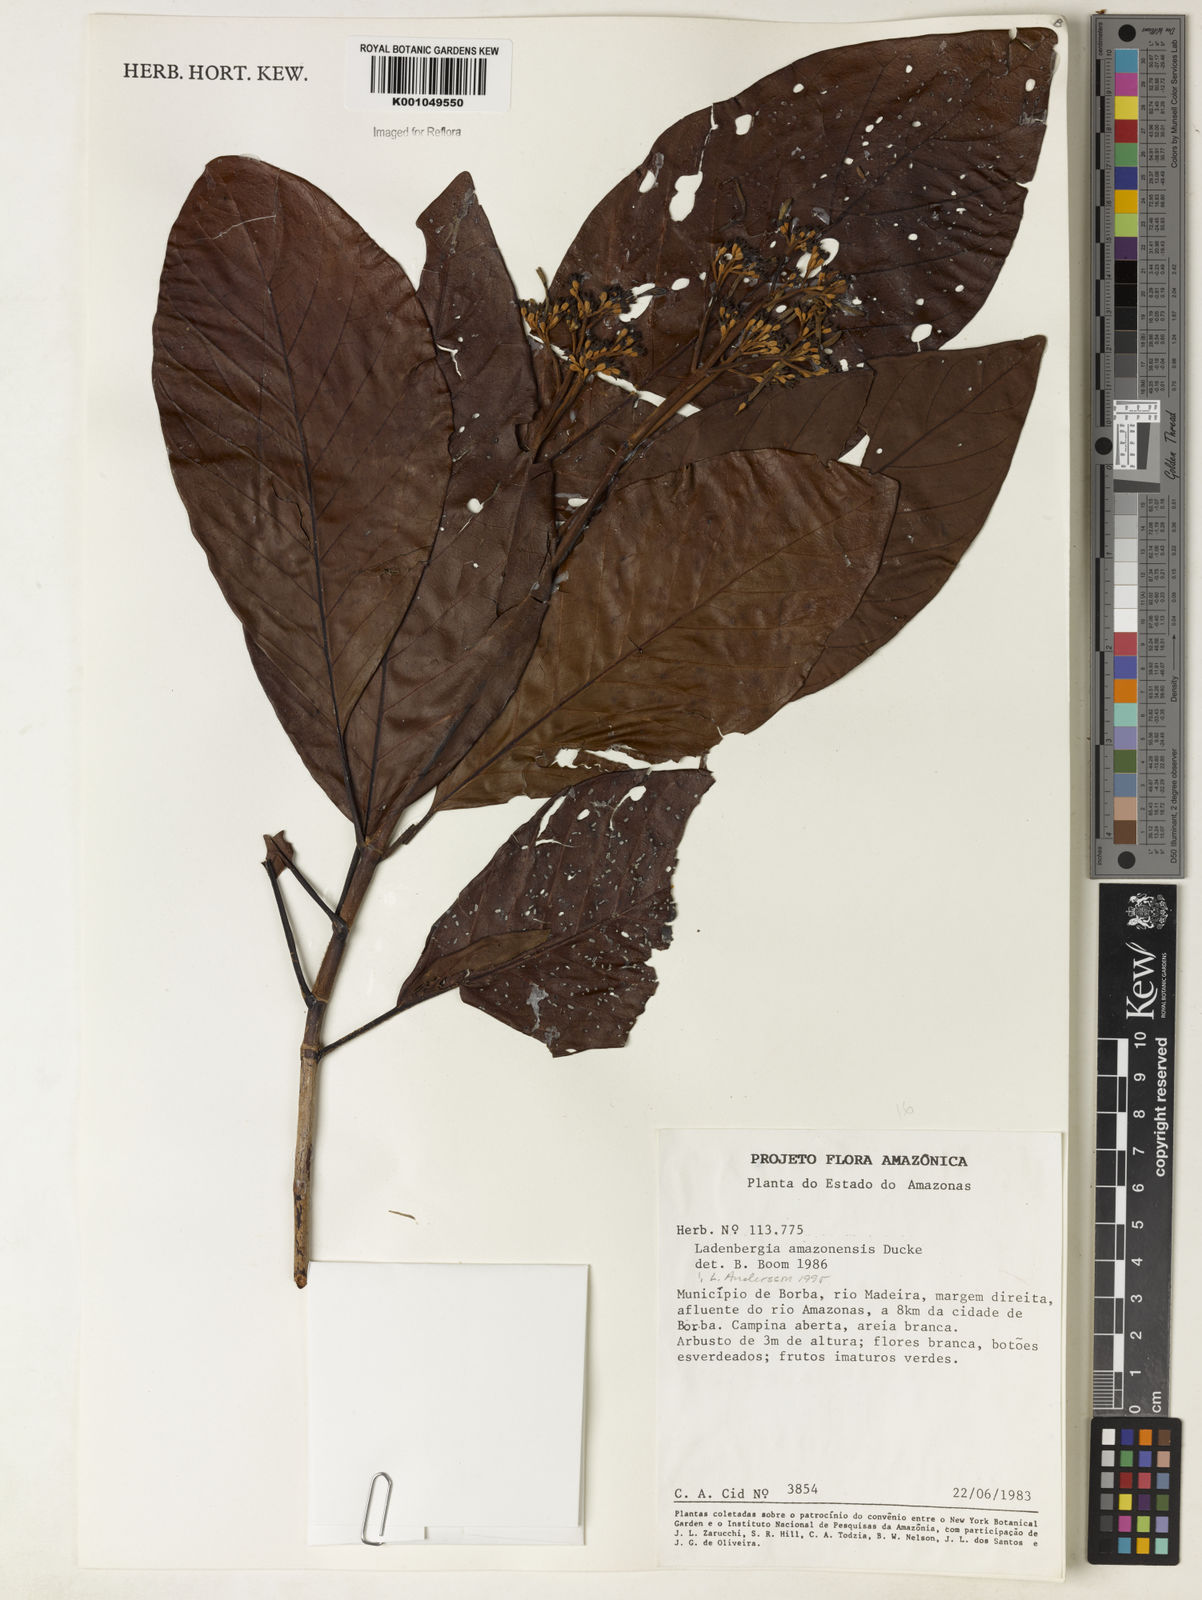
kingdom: Plantae
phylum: Tracheophyta
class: Magnoliopsida
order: Gentianales
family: Rubiaceae
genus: Ladenbergia
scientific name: Ladenbergia amazonensis
